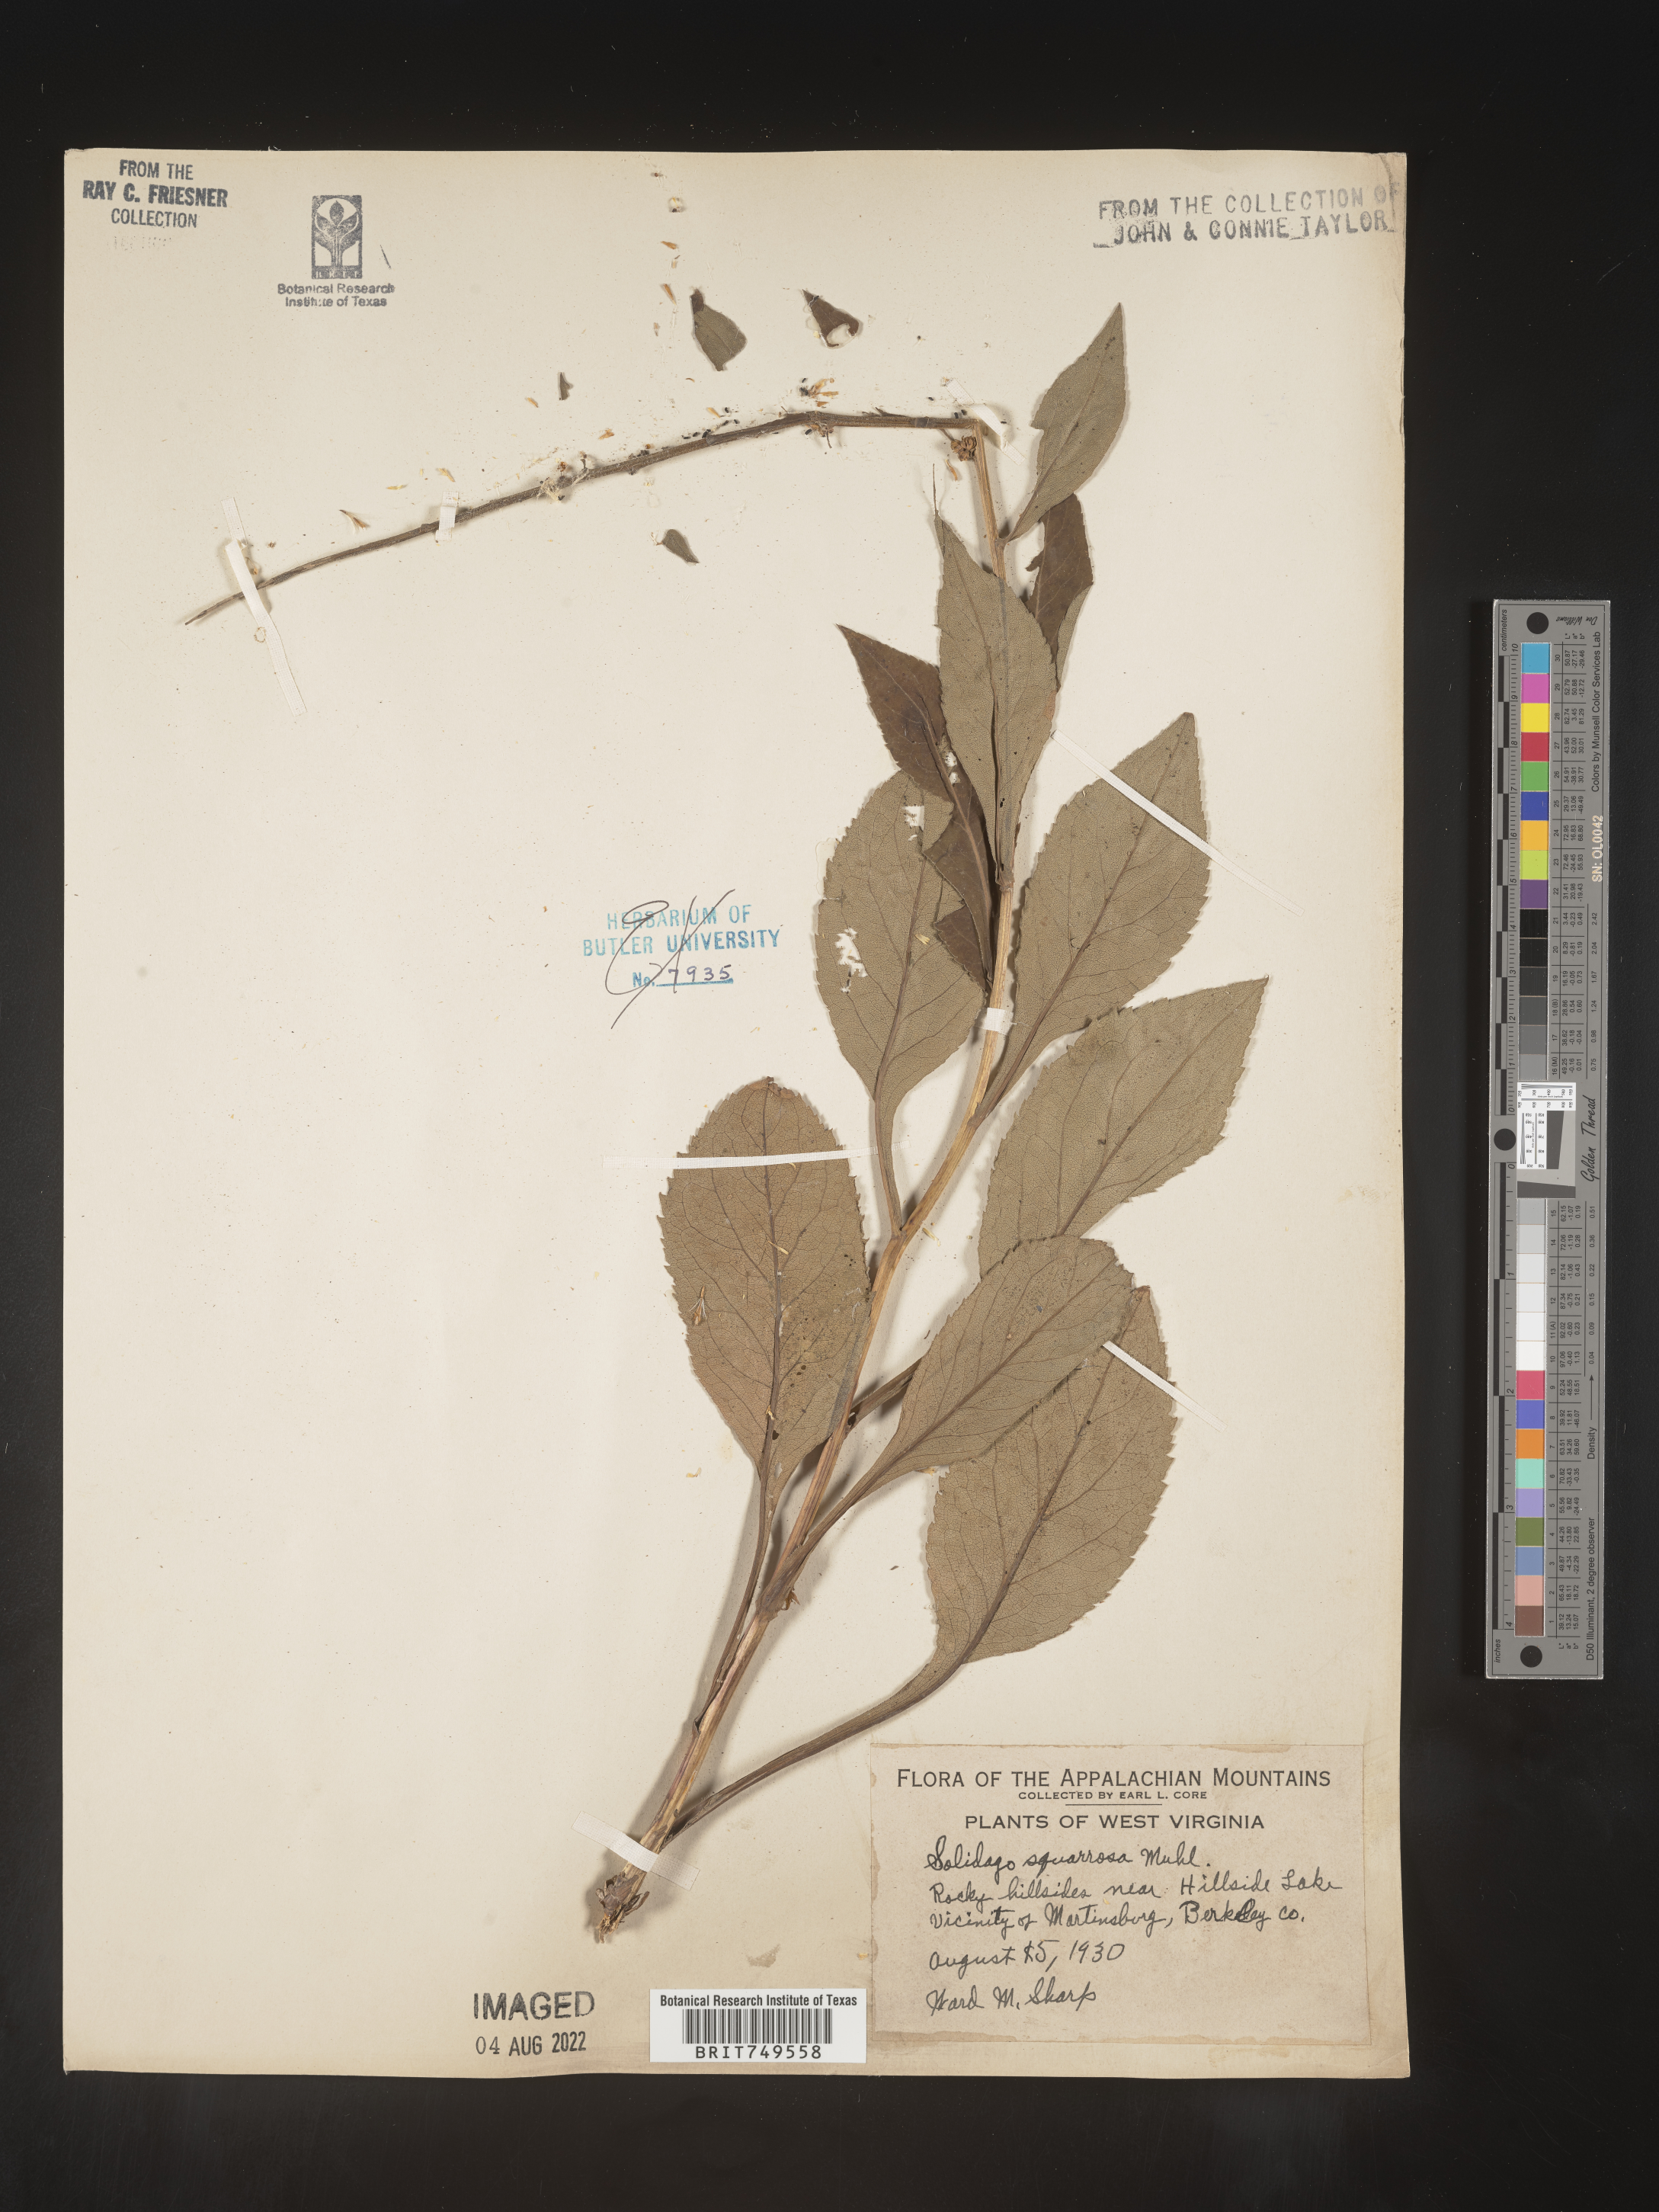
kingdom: Plantae
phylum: Tracheophyta
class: Magnoliopsida
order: Asterales
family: Asteraceae
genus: Solidago
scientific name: Solidago squarrosa
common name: Stout goldenrod
